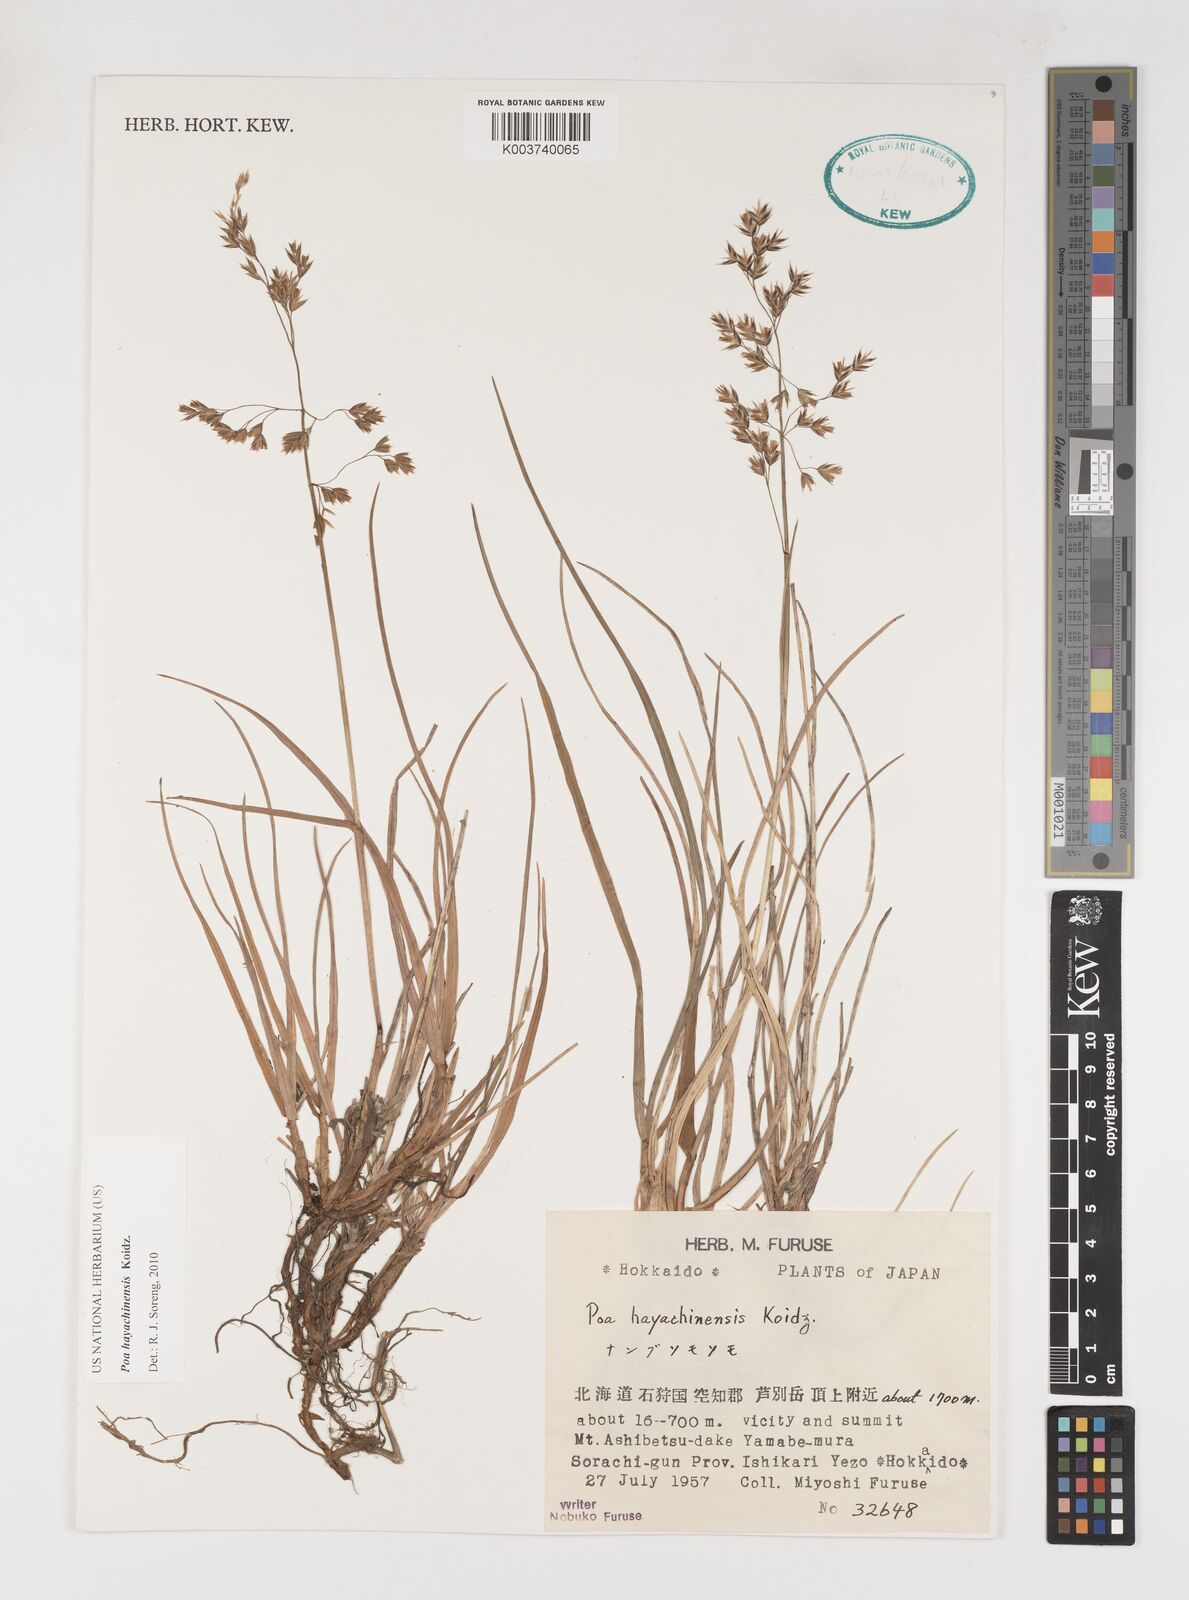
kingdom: Plantae
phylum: Tracheophyta
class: Liliopsida
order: Poales
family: Poaceae
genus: Dupontiopsis
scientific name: Dupontiopsis hayachinensis
